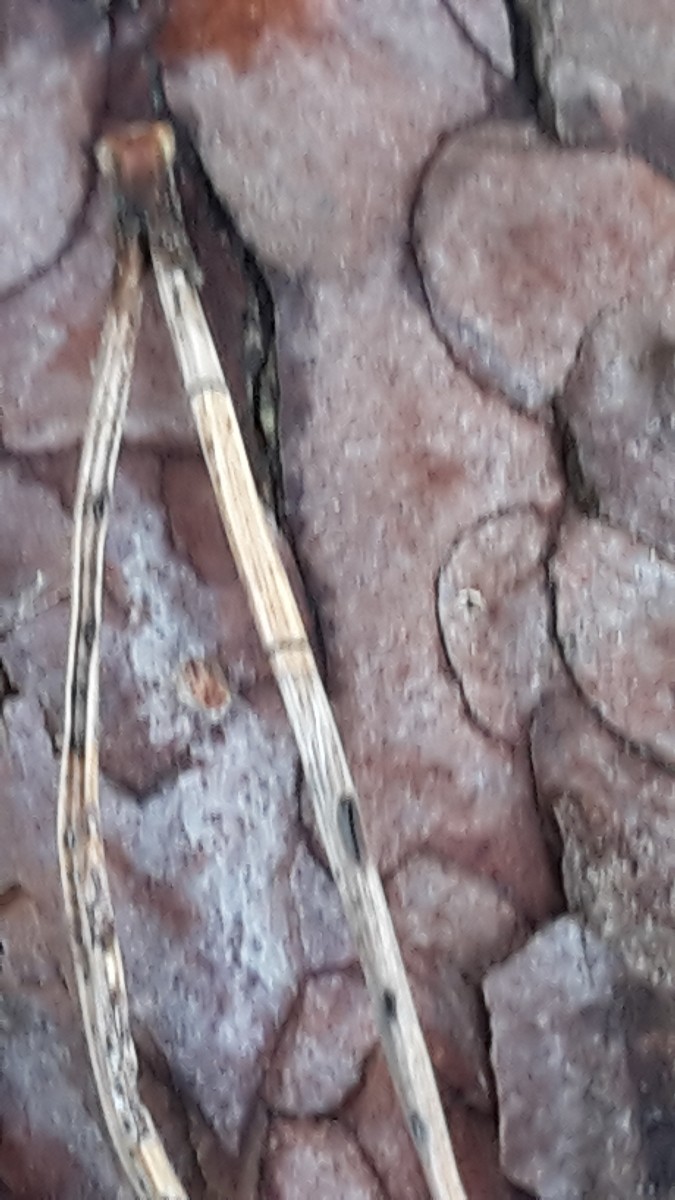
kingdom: Fungi
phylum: Ascomycota
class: Leotiomycetes
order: Rhytismatales
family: Rhytismataceae
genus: Lophodermium
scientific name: Lophodermium pinastri
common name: fyrre-fureplet
